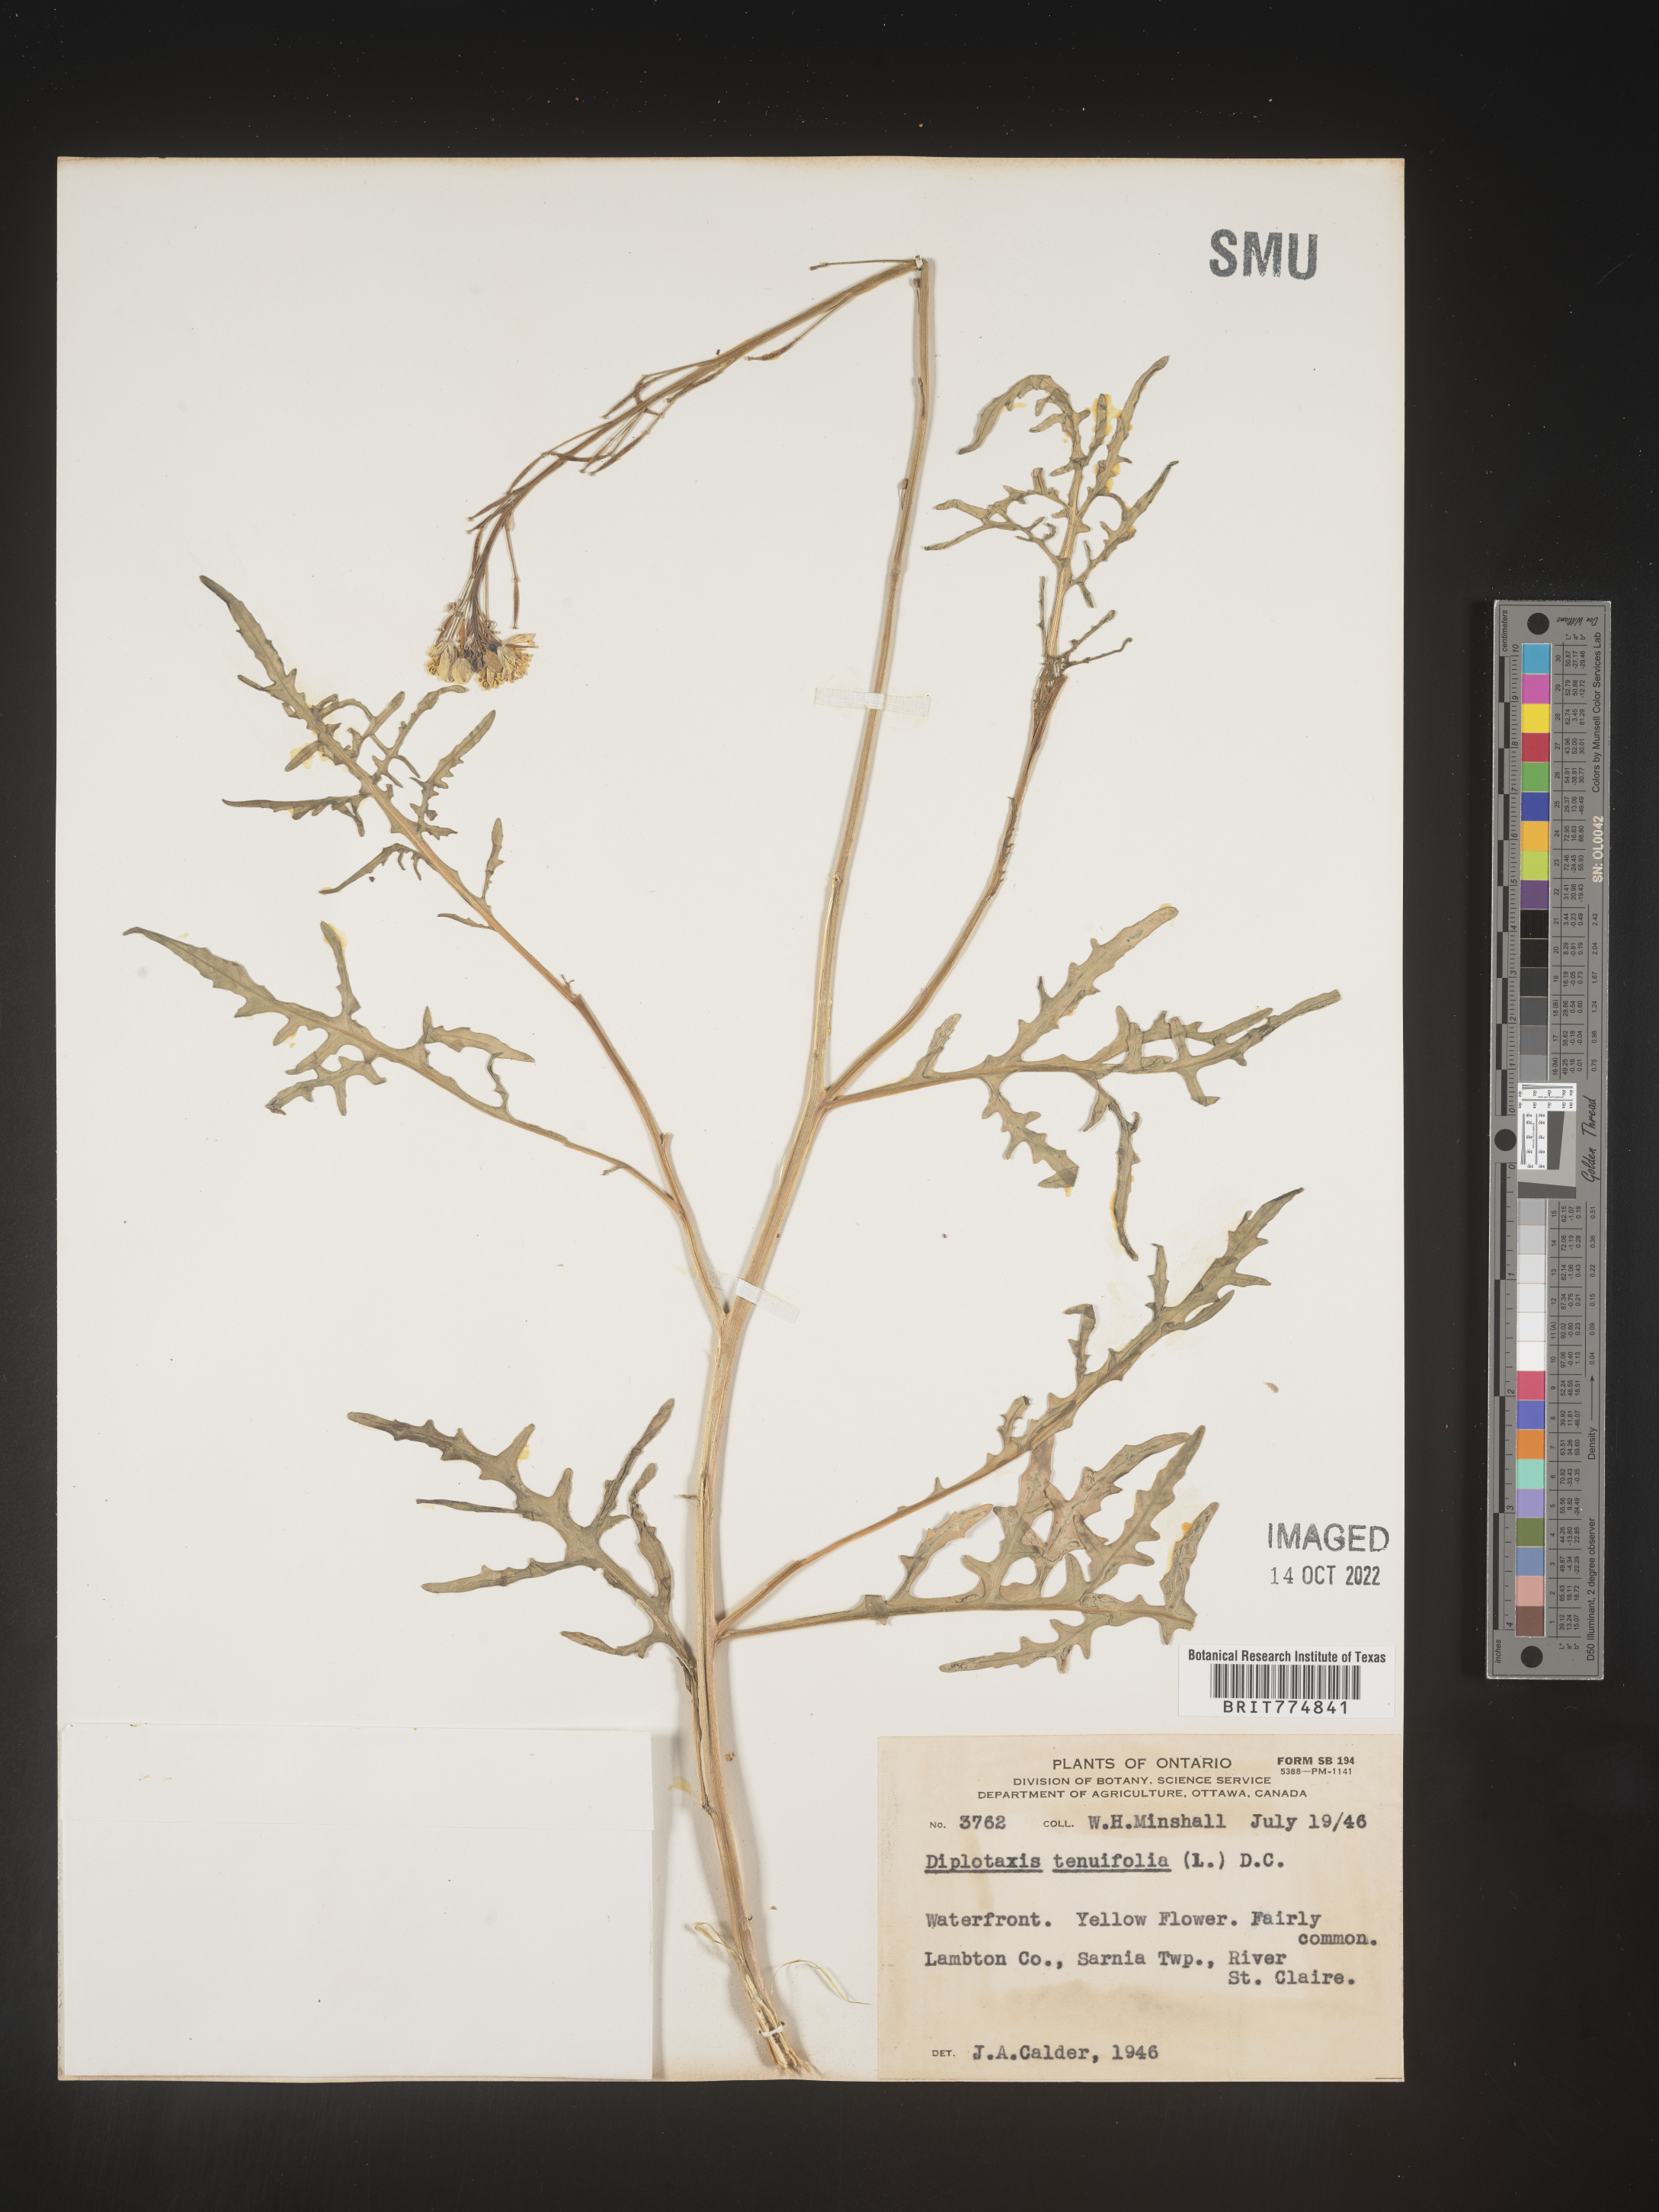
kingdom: Plantae
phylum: Tracheophyta
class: Magnoliopsida
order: Brassicales
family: Brassicaceae
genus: Diplotaxis
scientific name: Diplotaxis
